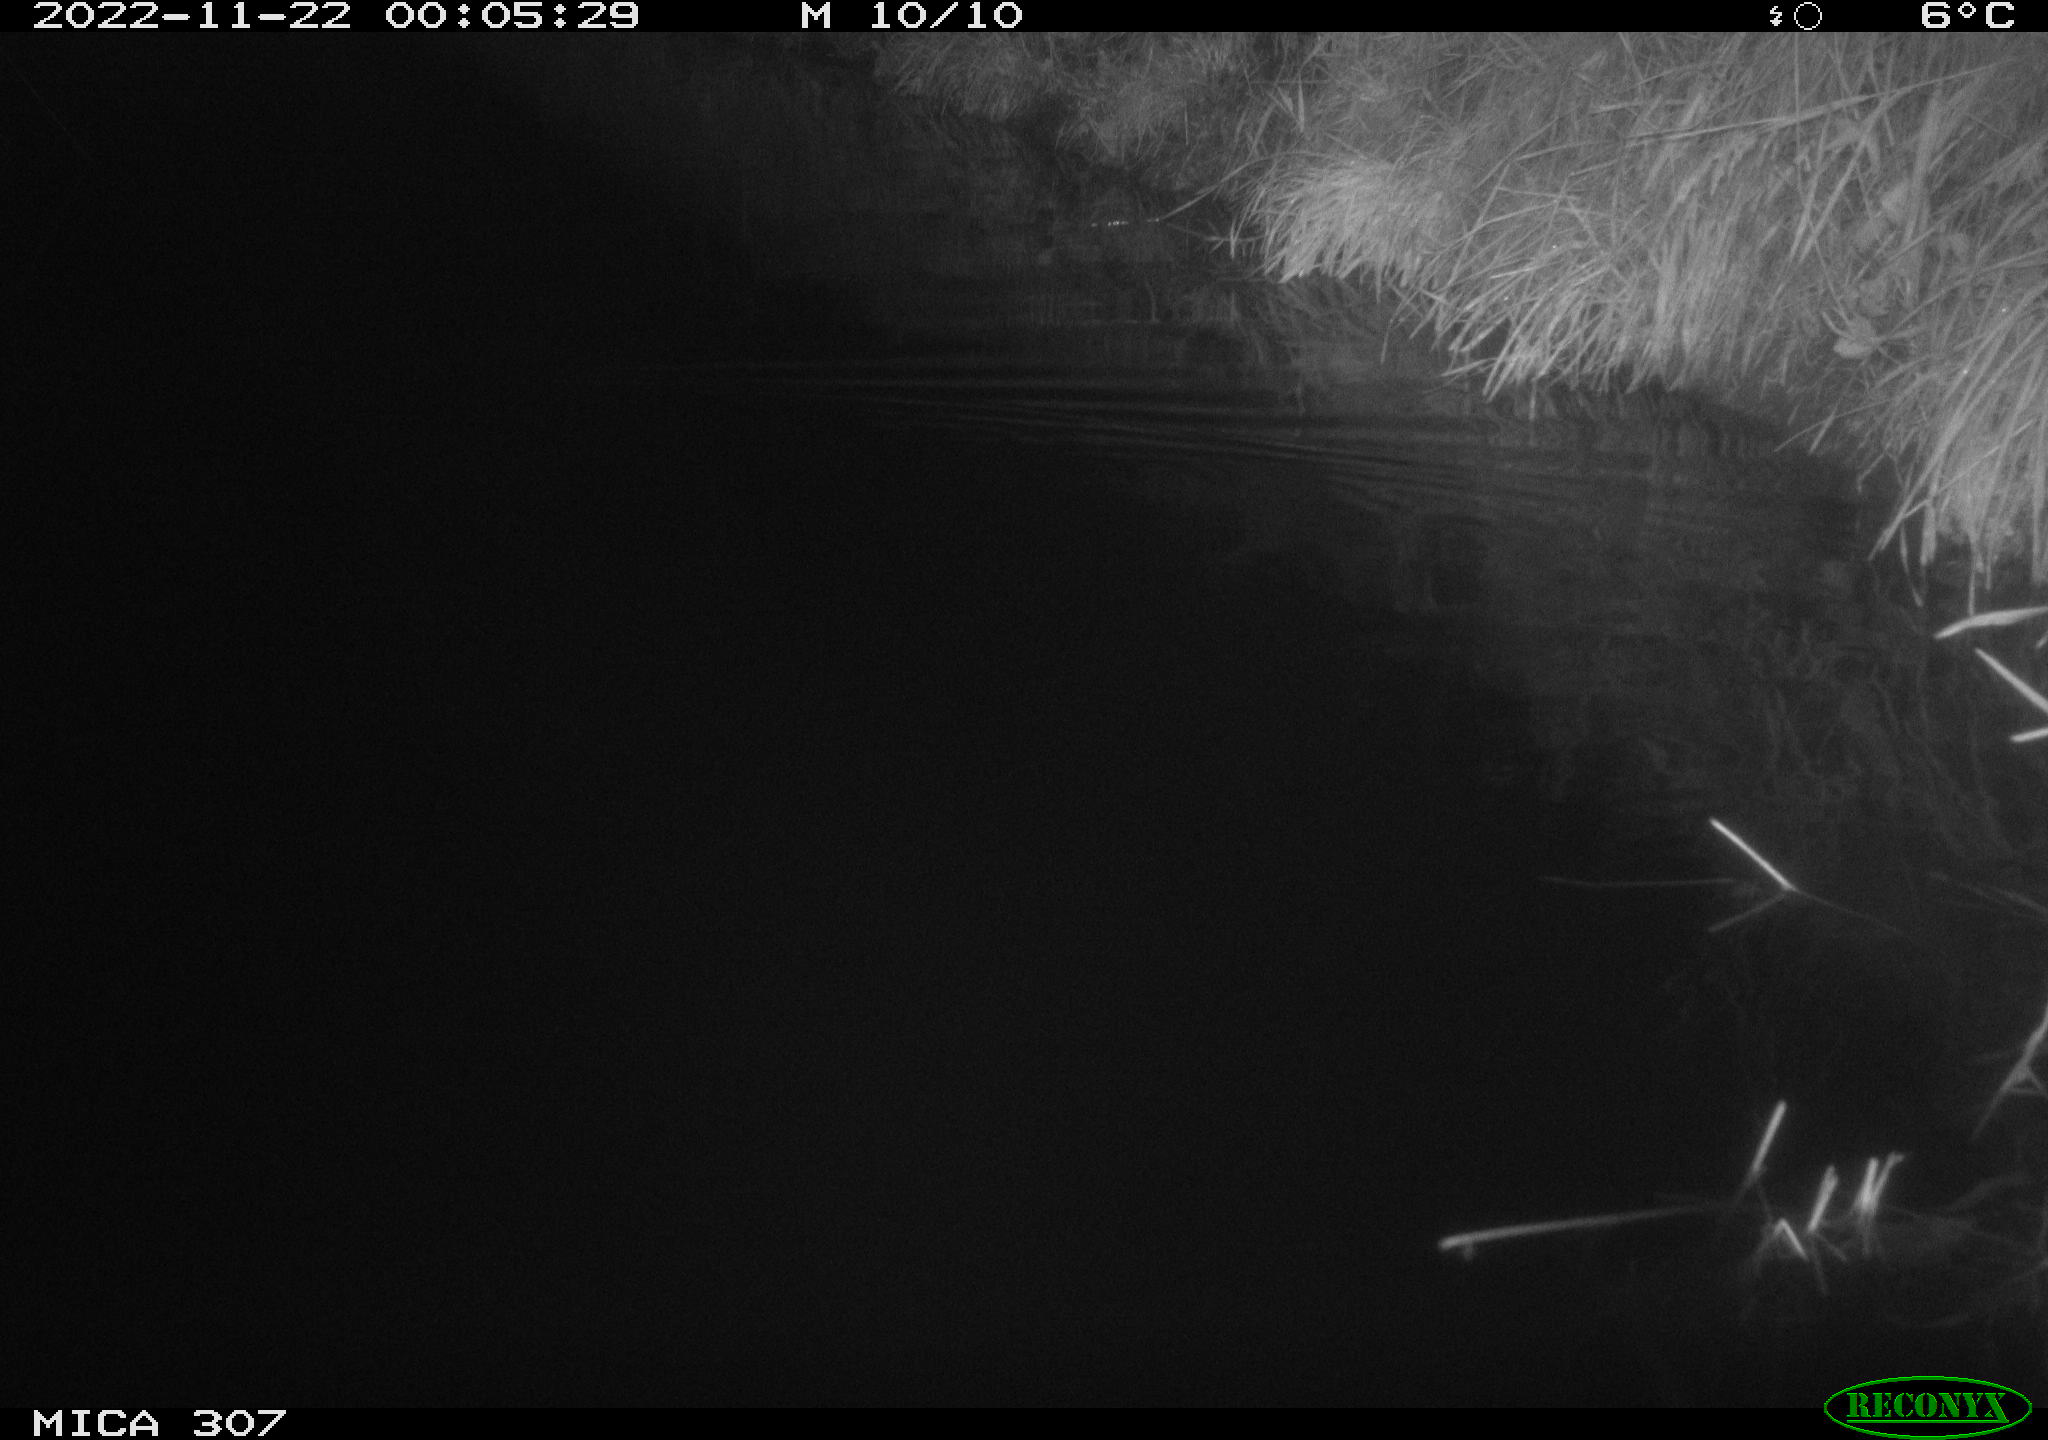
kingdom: Animalia
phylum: Chordata
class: Mammalia
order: Rodentia
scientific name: Rodentia
